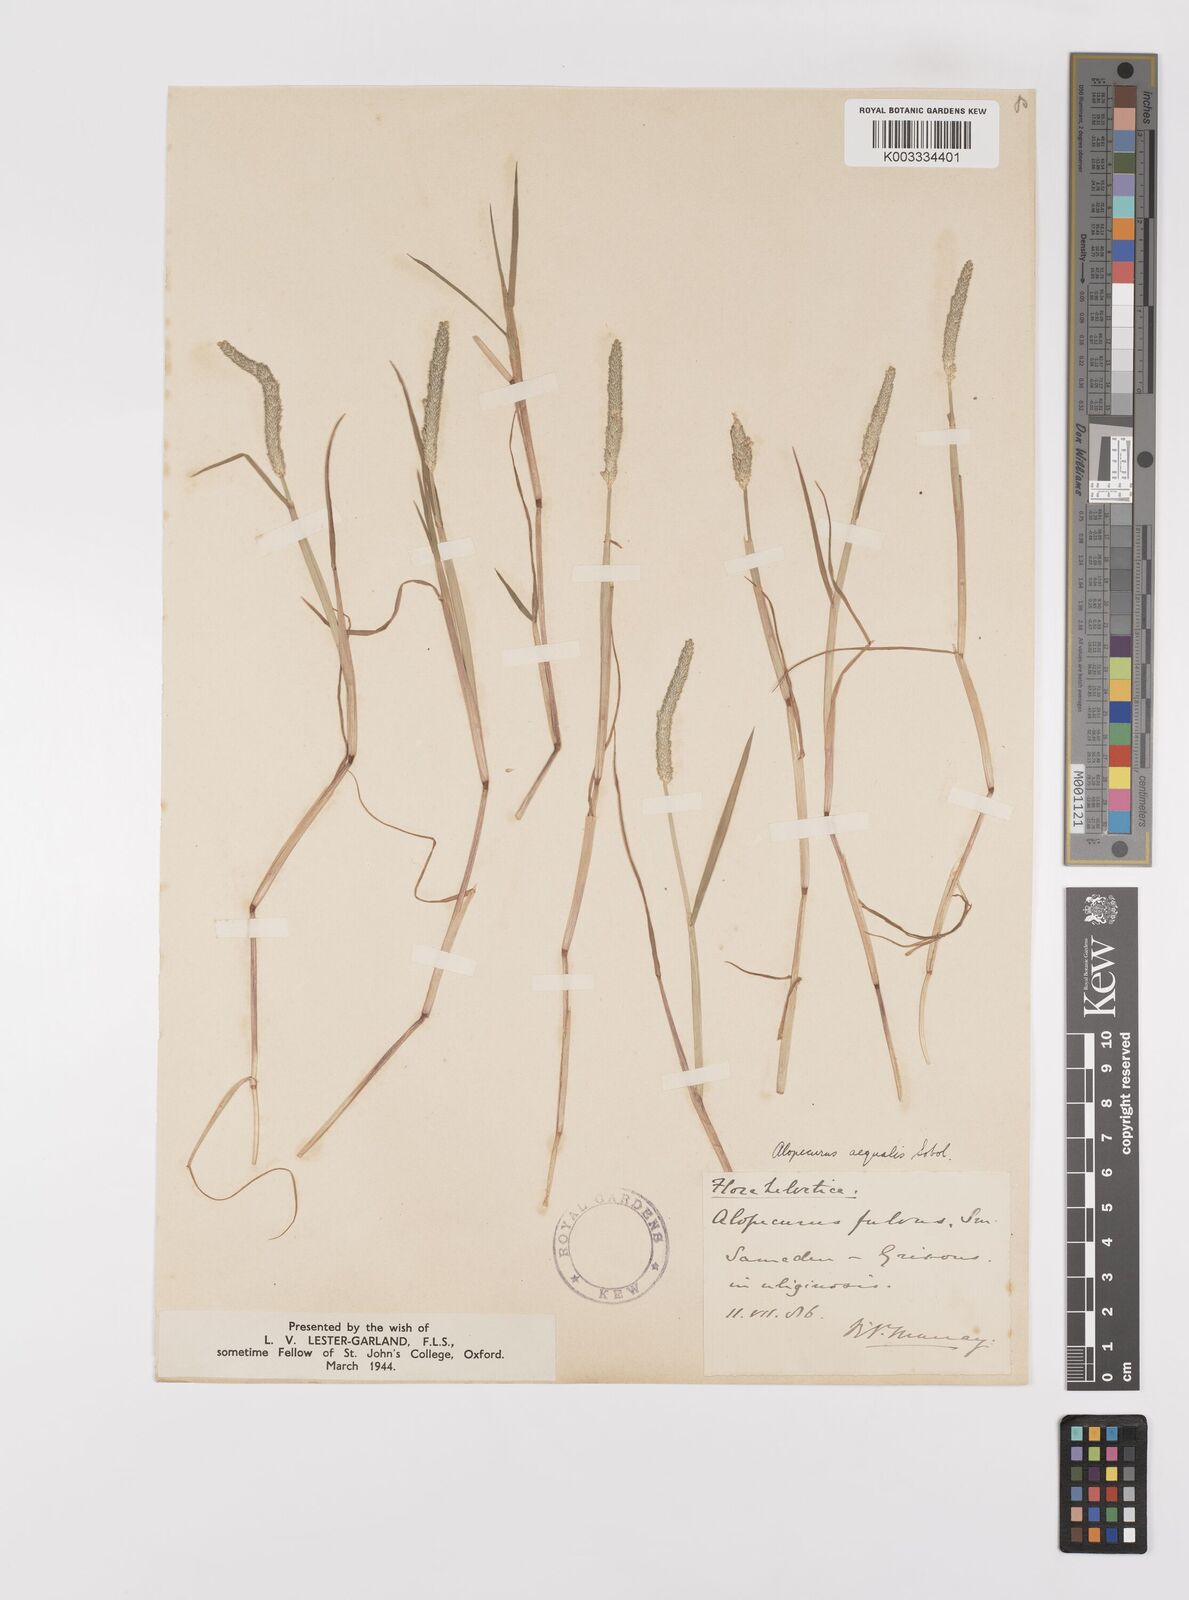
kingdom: Plantae
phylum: Tracheophyta
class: Liliopsida
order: Poales
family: Poaceae
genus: Alopecurus
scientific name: Alopecurus aequalis
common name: Orange foxtail
